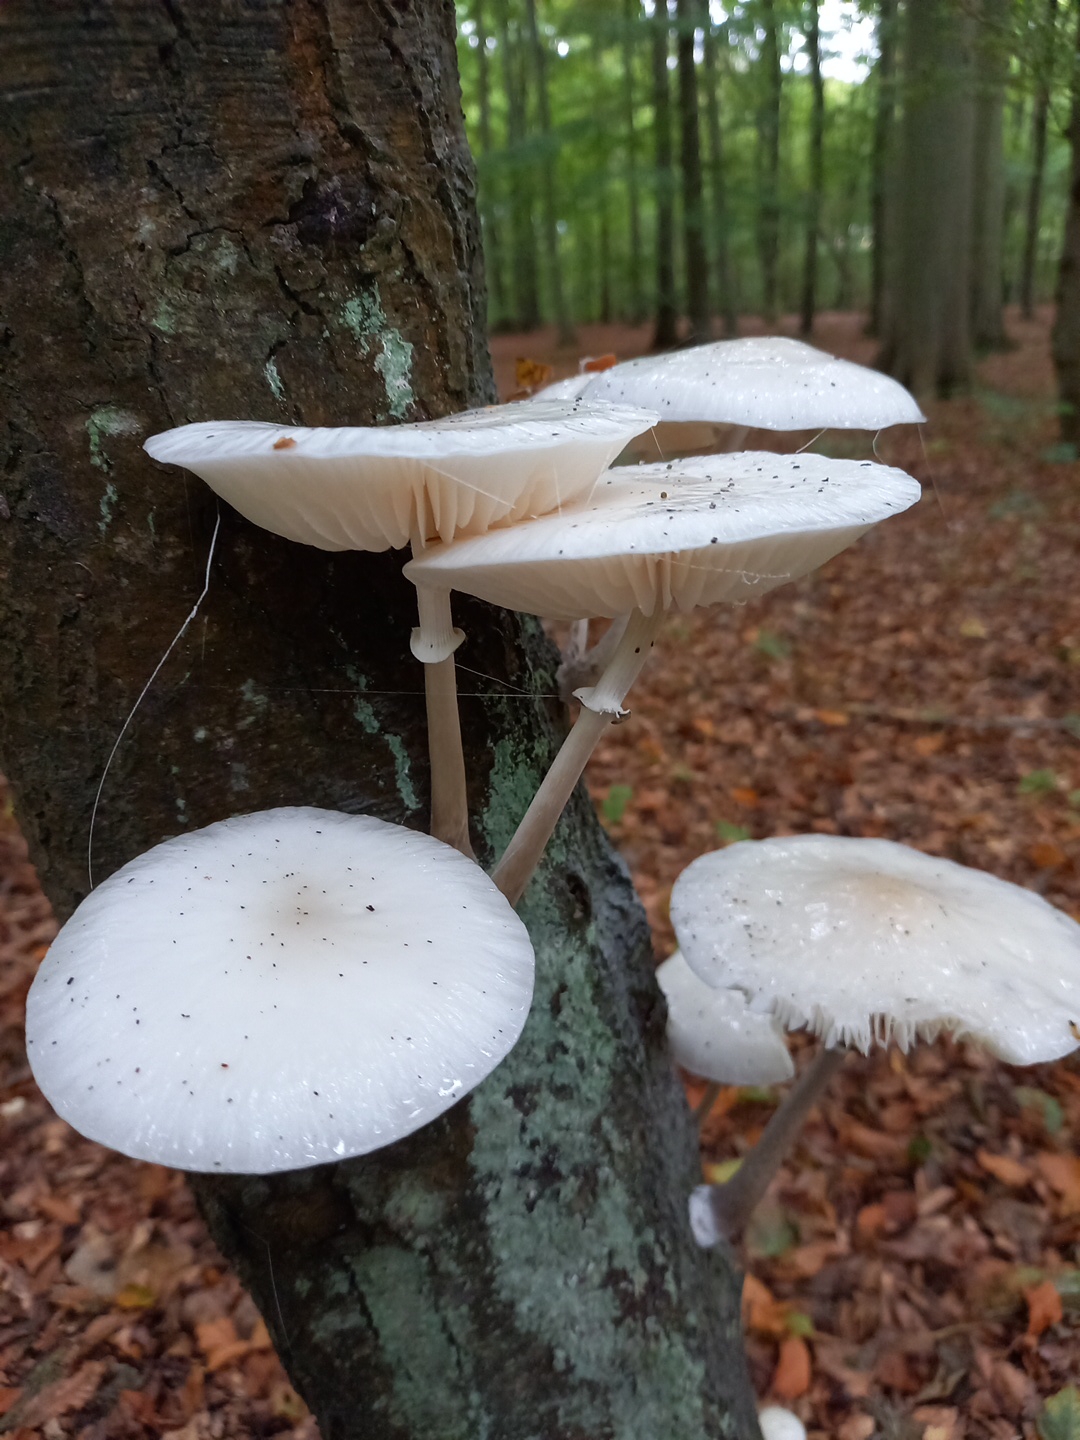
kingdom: Fungi
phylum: Basidiomycota
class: Agaricomycetes
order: Agaricales
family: Physalacriaceae
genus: Mucidula
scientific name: Mucidula mucida
